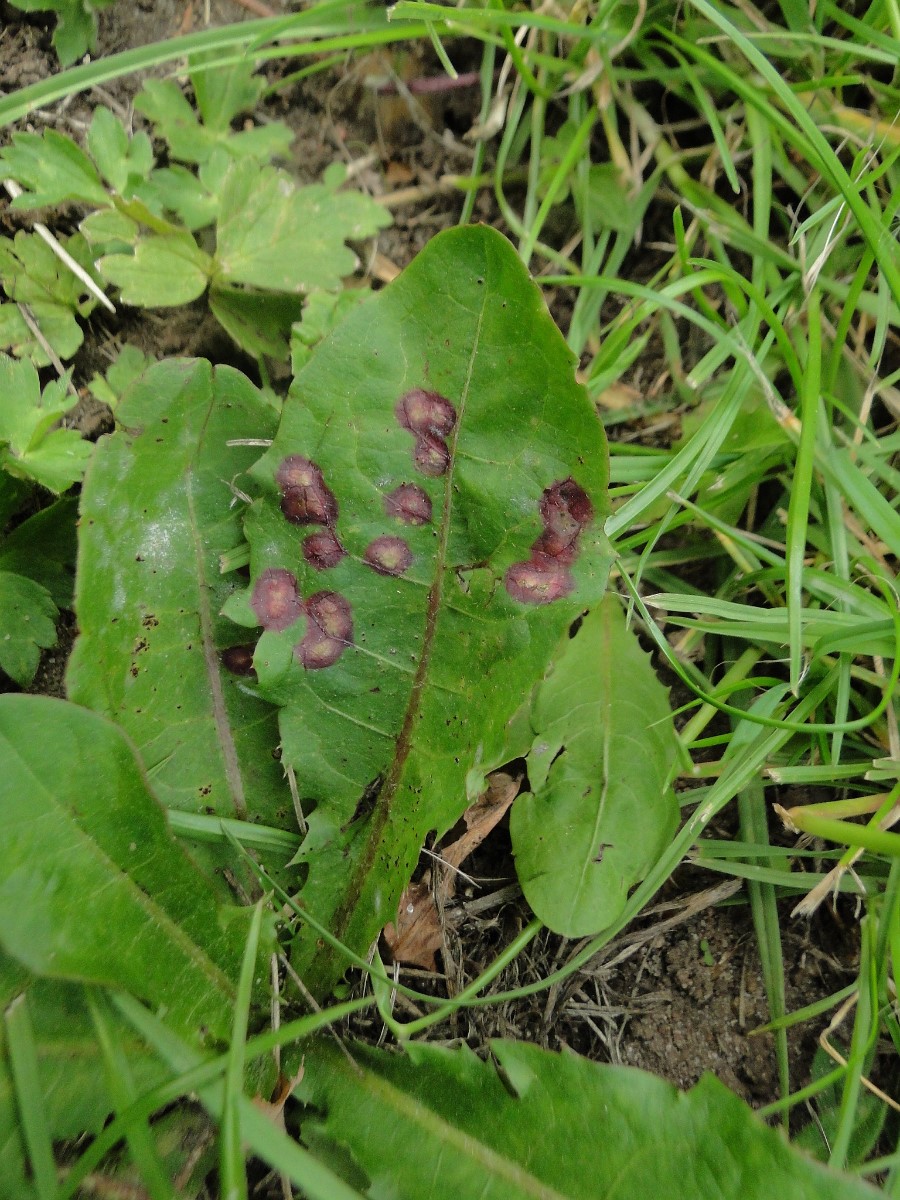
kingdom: Fungi
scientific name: Fungi
